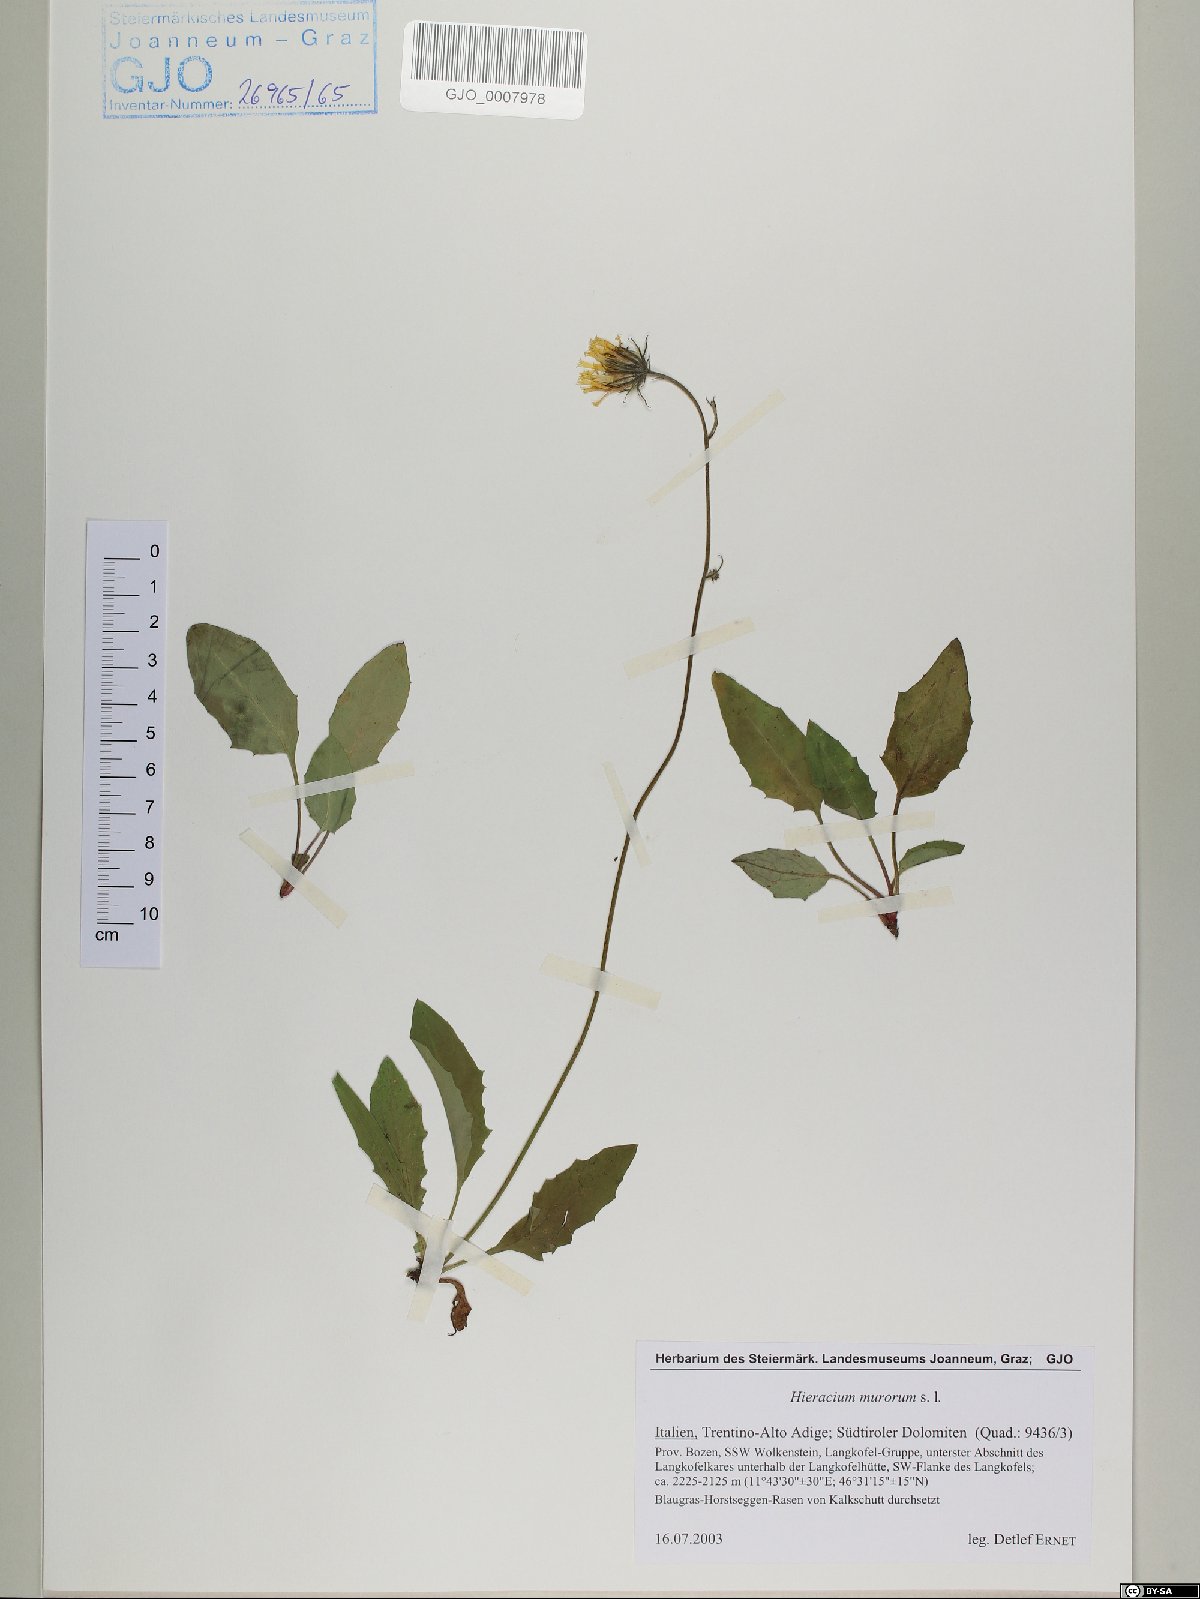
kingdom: Plantae
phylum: Tracheophyta
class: Magnoliopsida
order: Asterales
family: Asteraceae
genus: Hieracium
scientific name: Hieracium murorum
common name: Wall hawkweed
